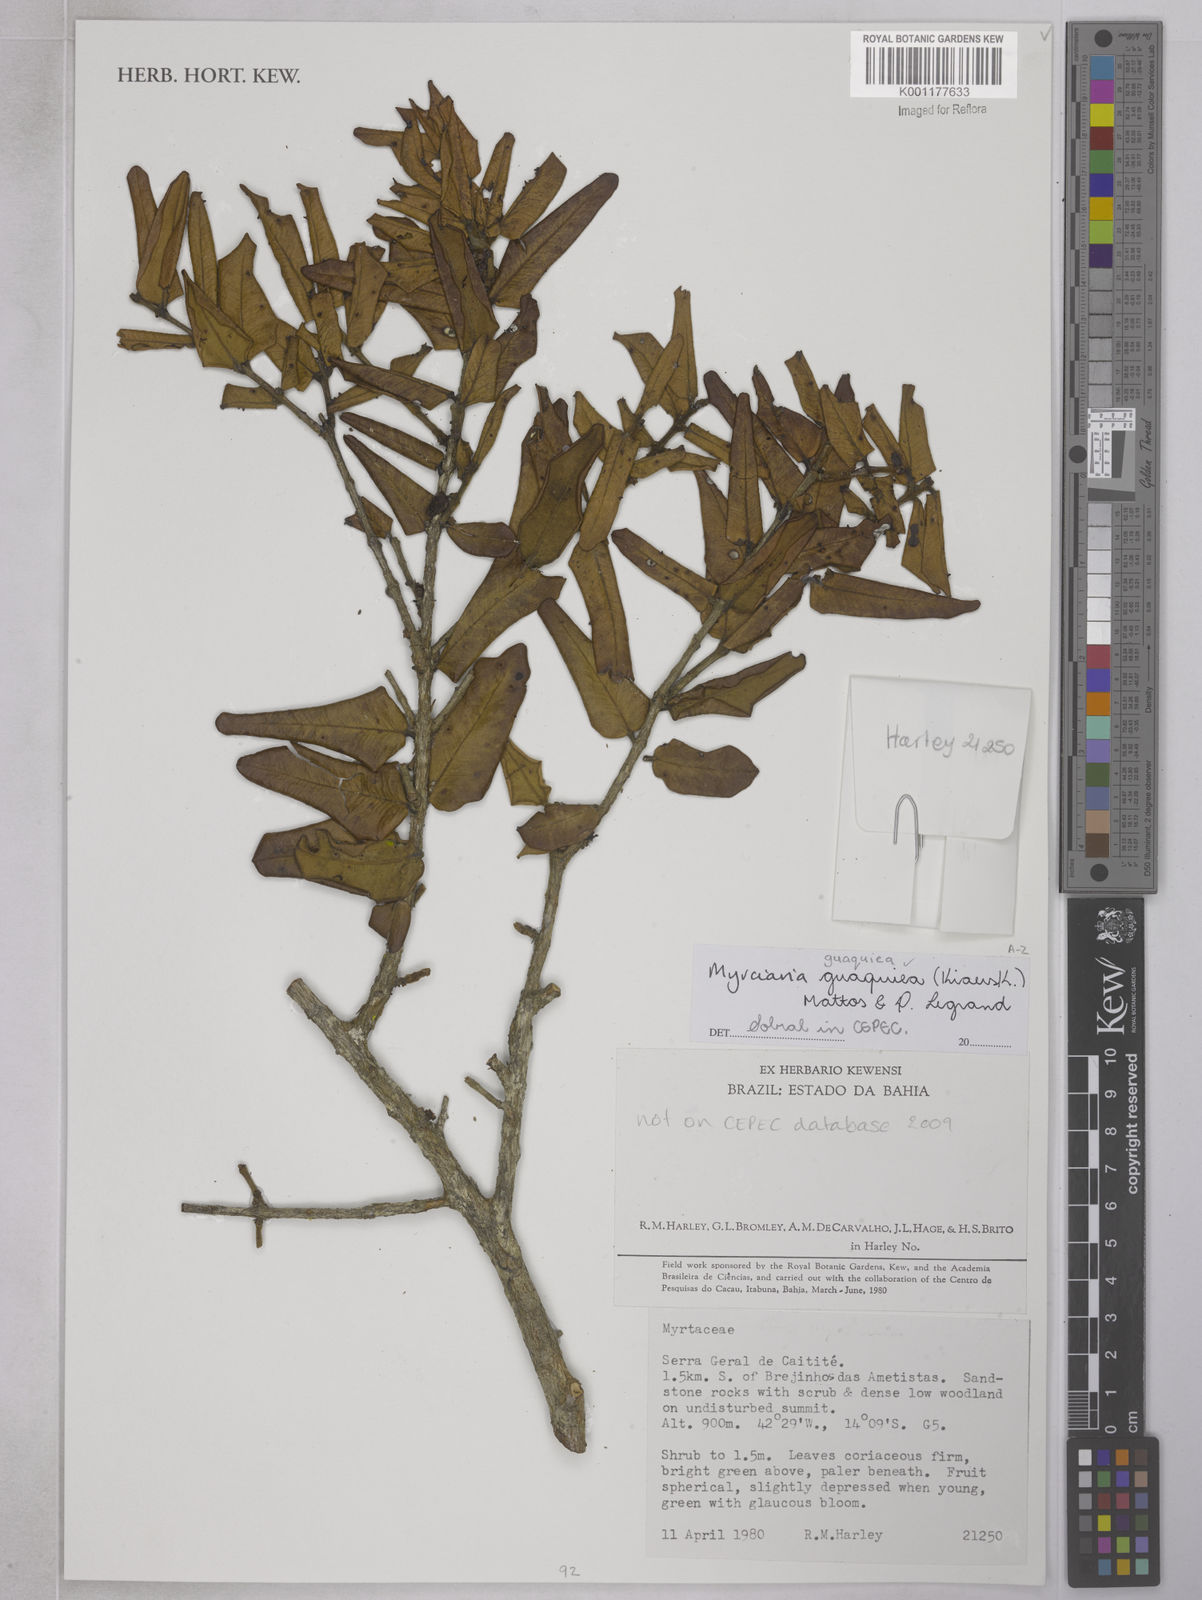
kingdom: Plantae
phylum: Tracheophyta
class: Magnoliopsida
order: Myrtales
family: Myrtaceae
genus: Myrciaria
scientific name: Myrciaria guaquiea
